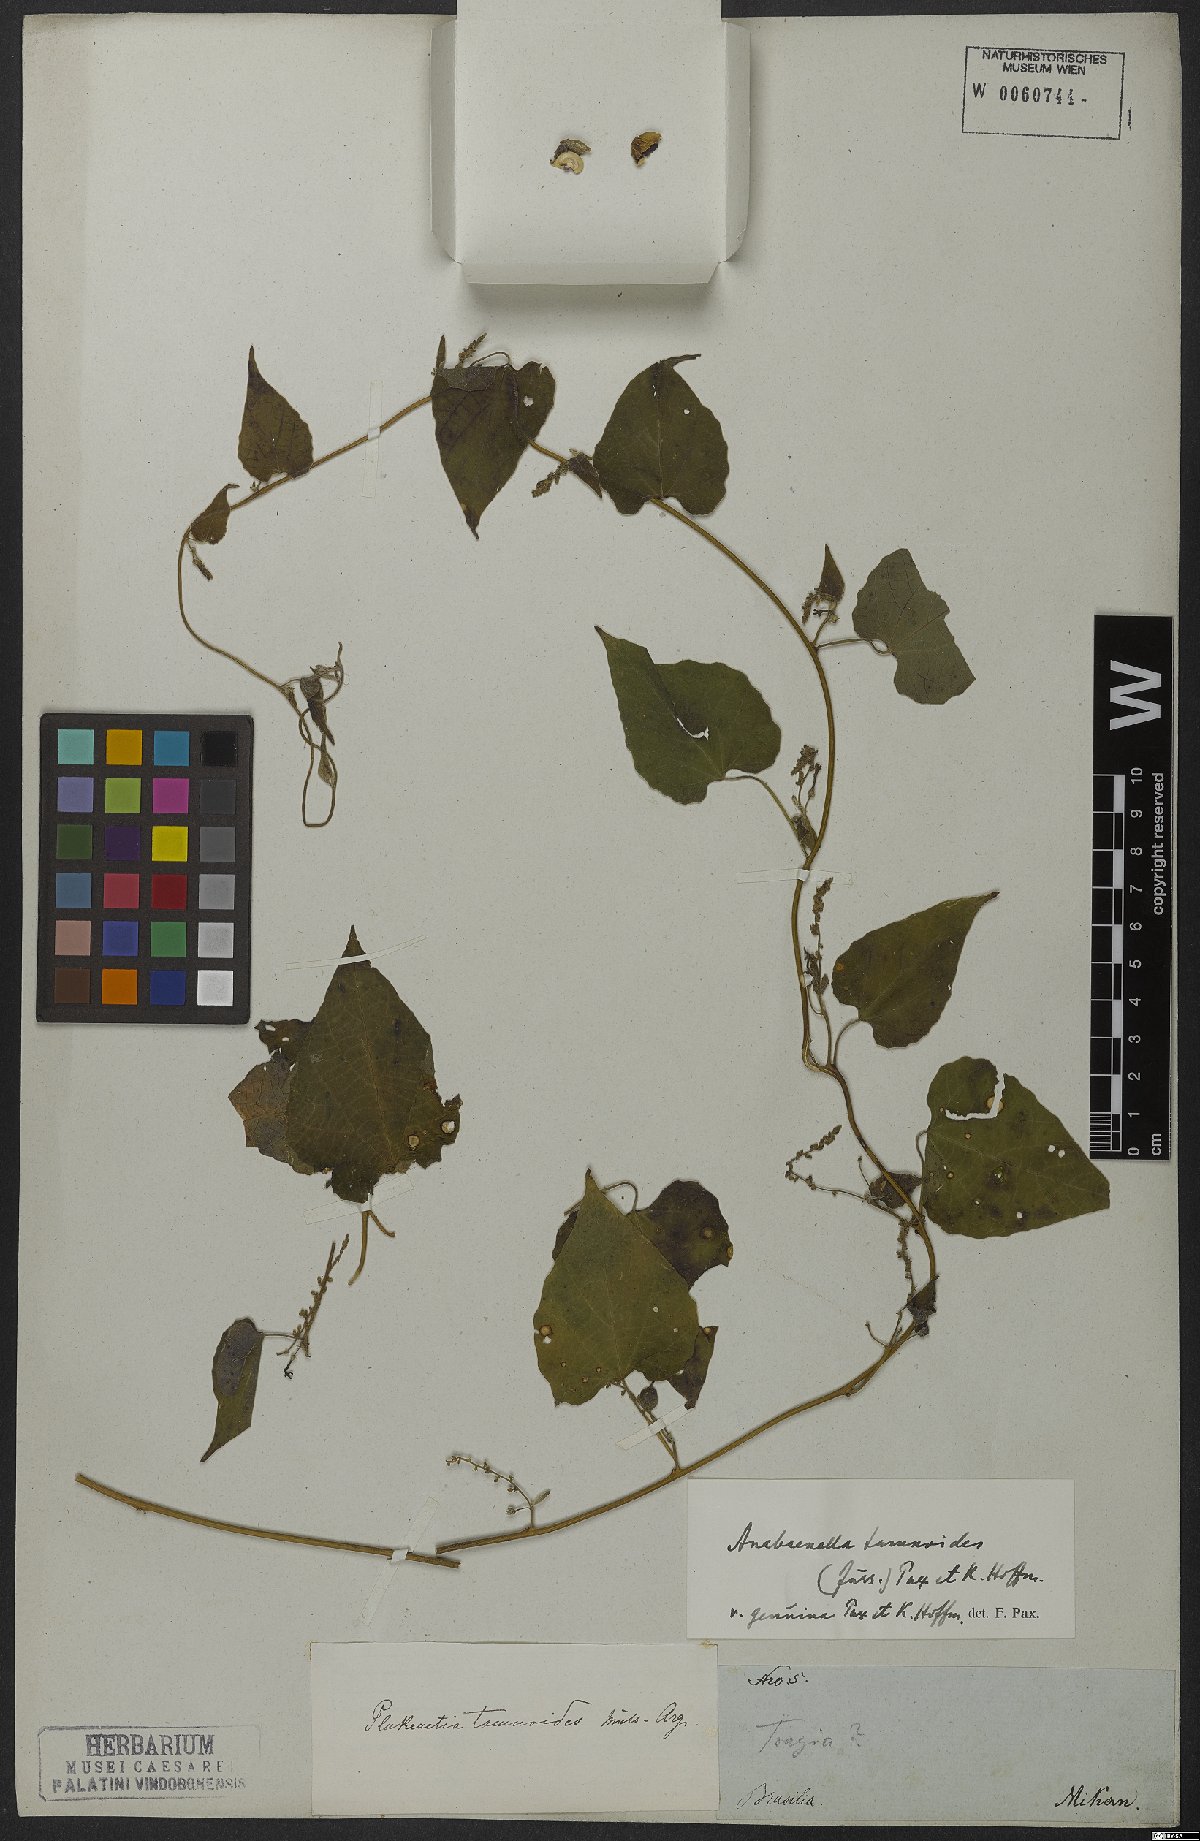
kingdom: Plantae
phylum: Tracheophyta
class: Magnoliopsida
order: Malpighiales
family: Euphorbiaceae
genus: Romanoa
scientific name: Romanoa tamnoides
